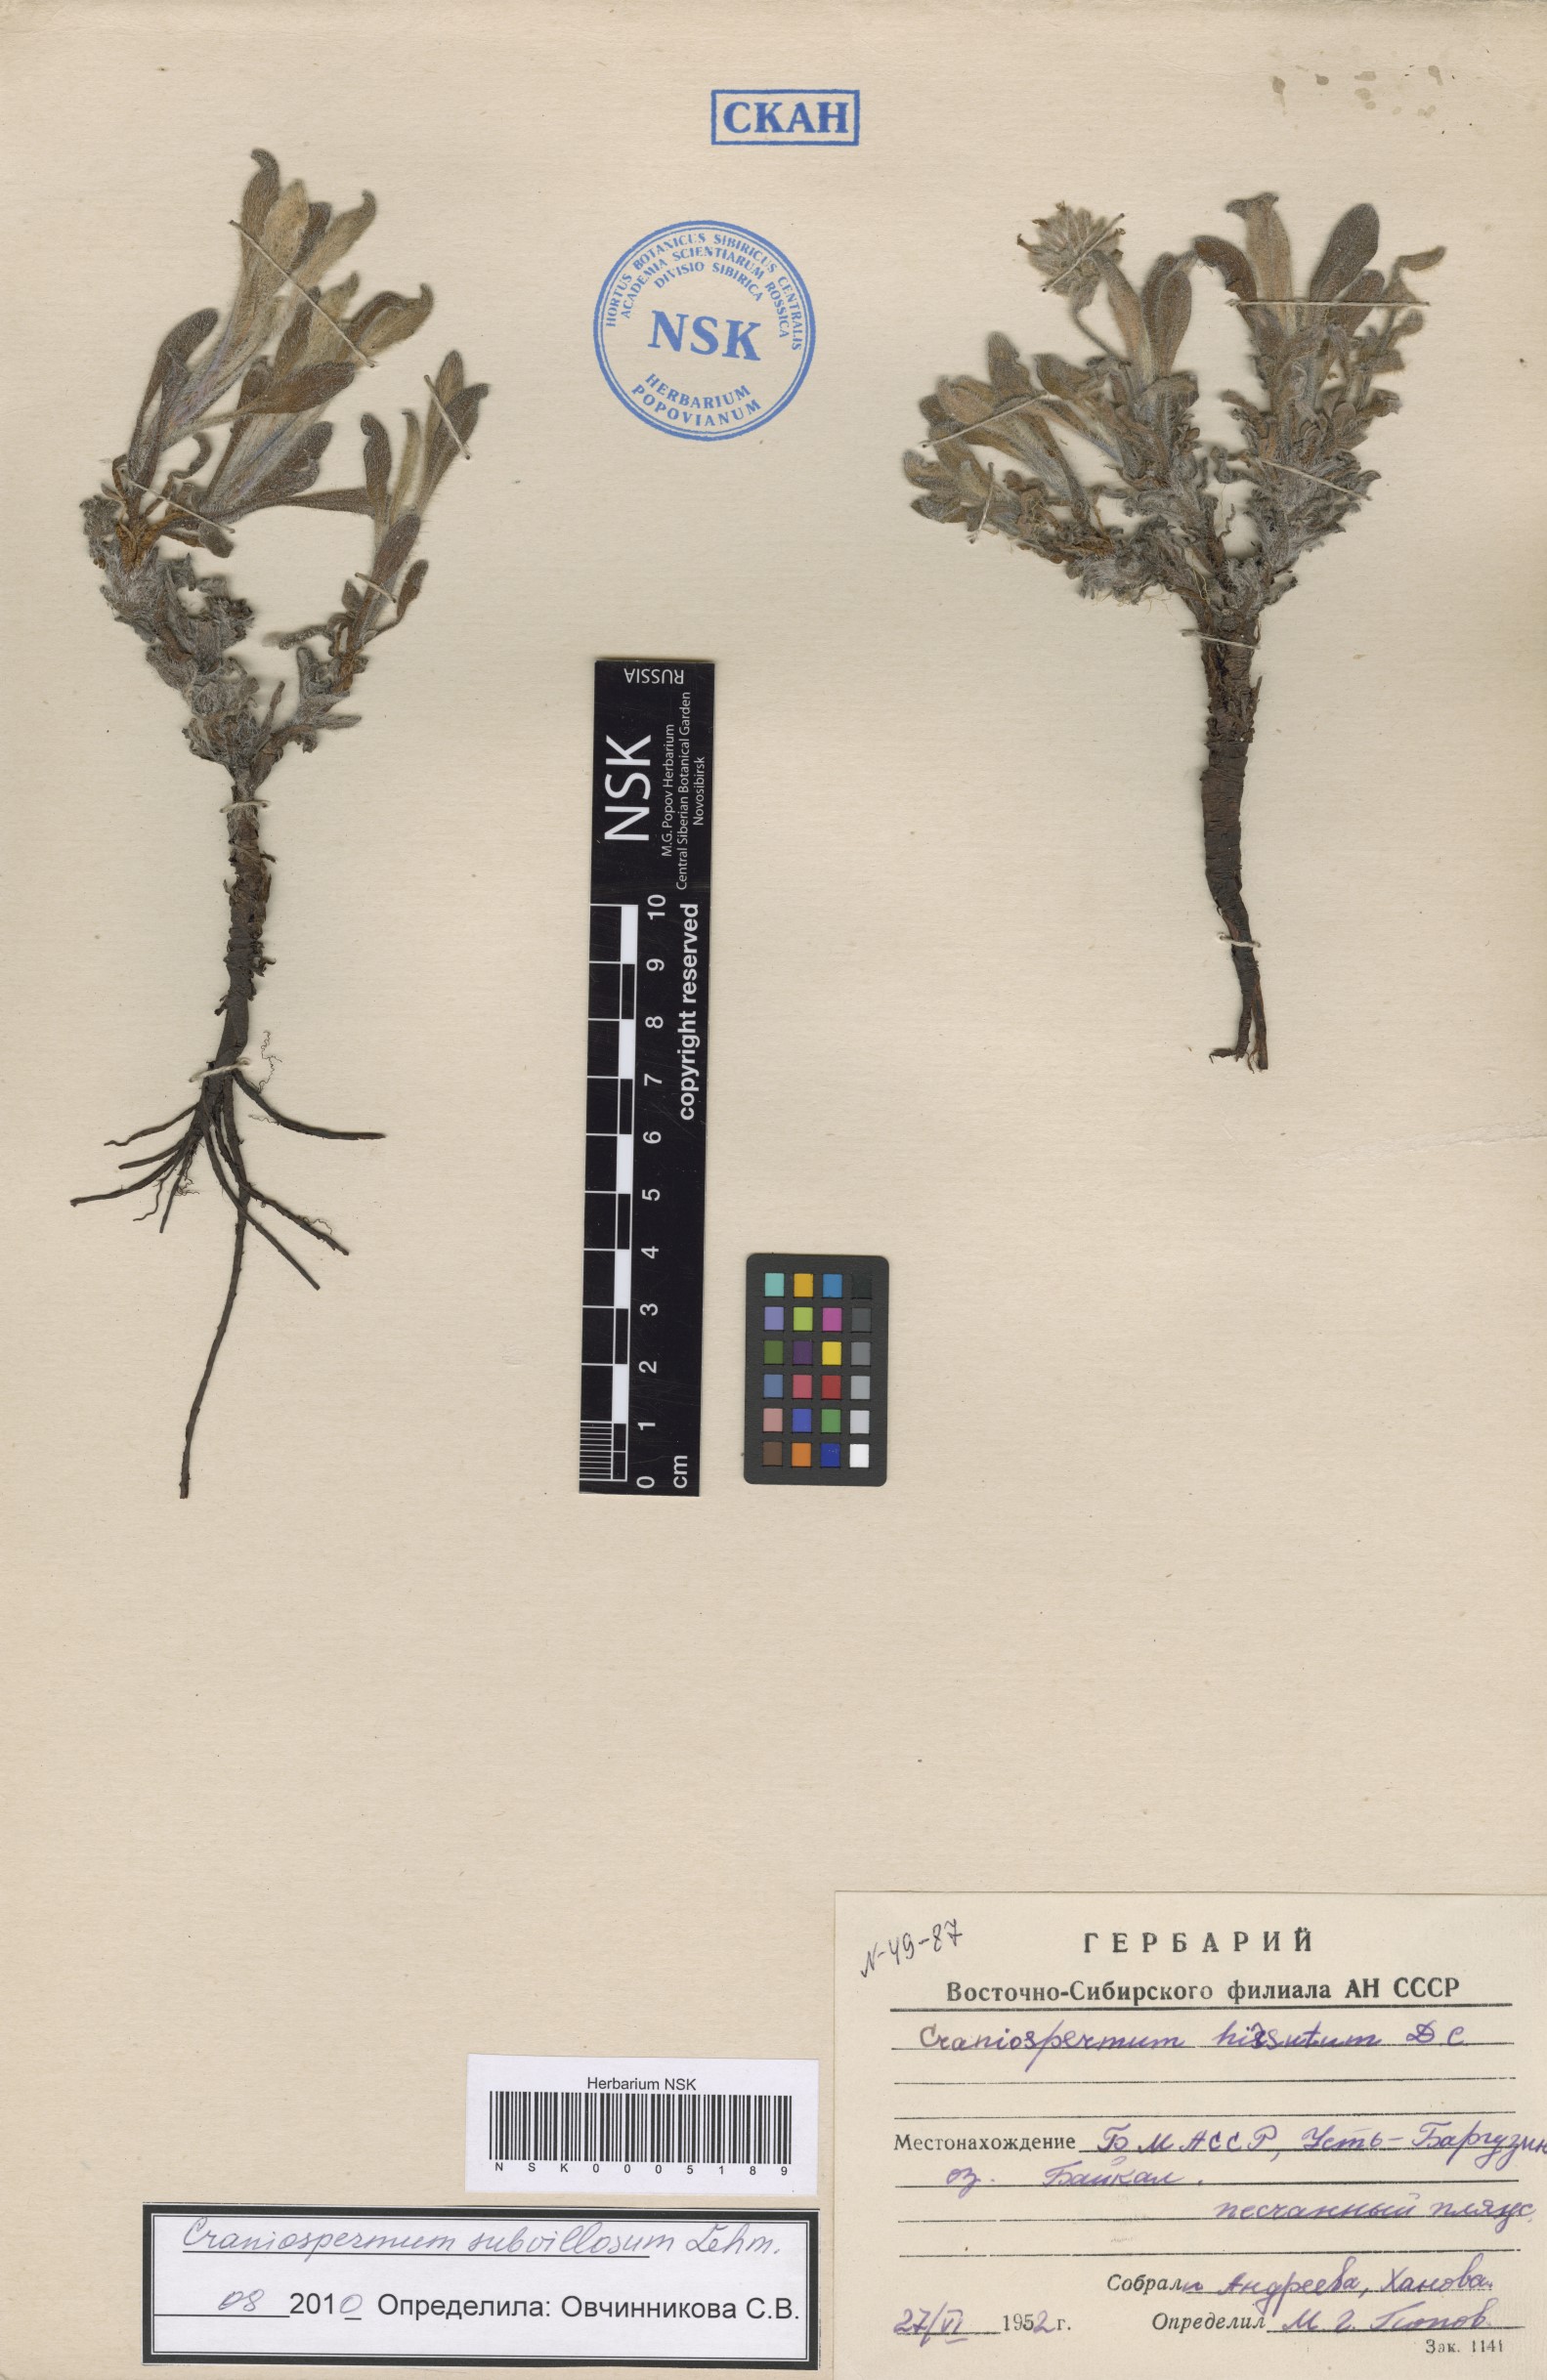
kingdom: Plantae
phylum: Tracheophyta
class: Magnoliopsida
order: Boraginales
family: Boraginaceae
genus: Craniospermum
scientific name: Craniospermum subvillosum
